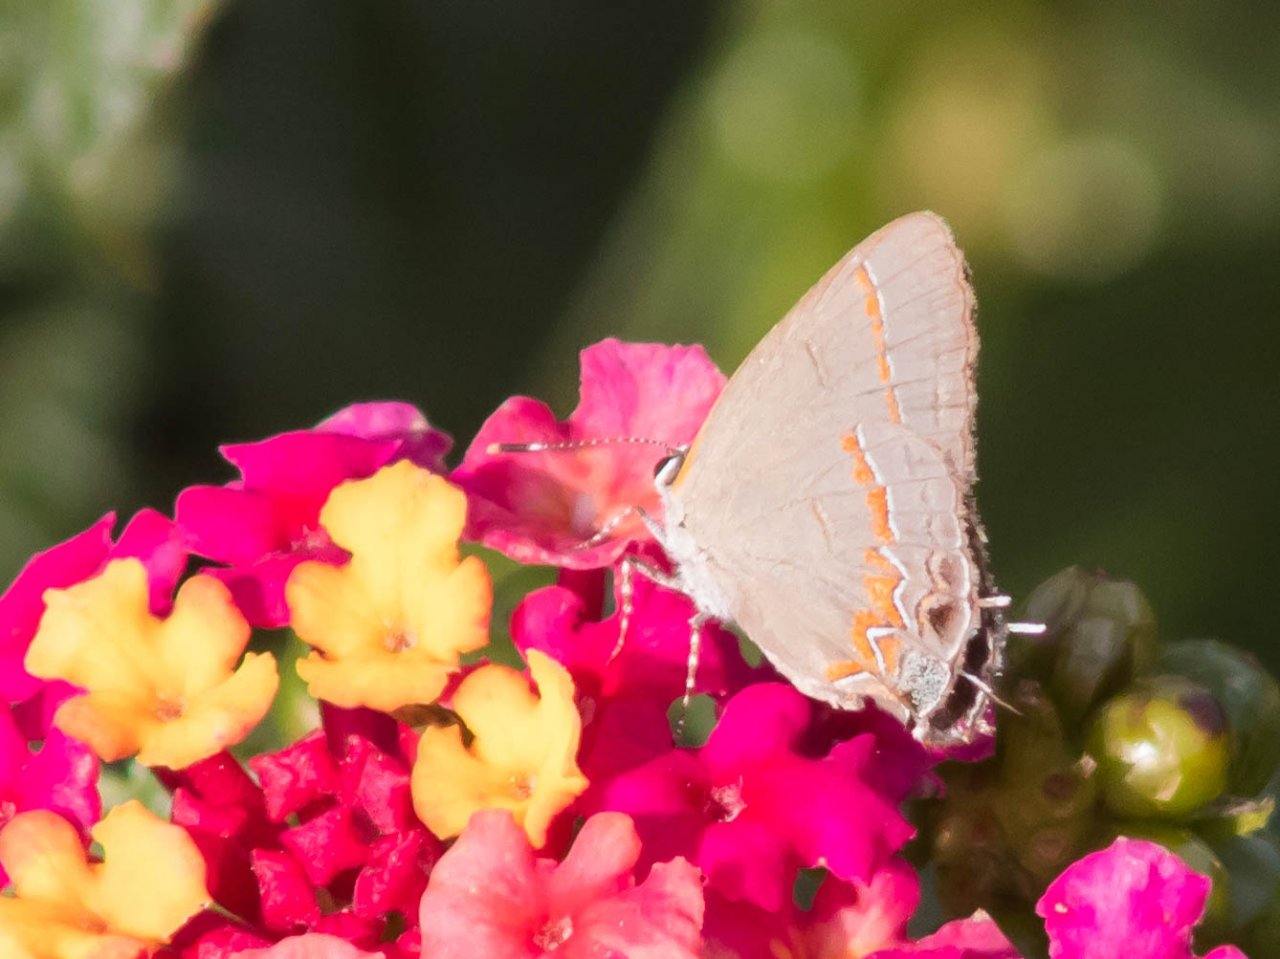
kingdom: Animalia
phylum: Arthropoda
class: Insecta
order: Lepidoptera
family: Lycaenidae
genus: Calycopis
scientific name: Calycopis cecrops
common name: Red-banded Hairstreak
